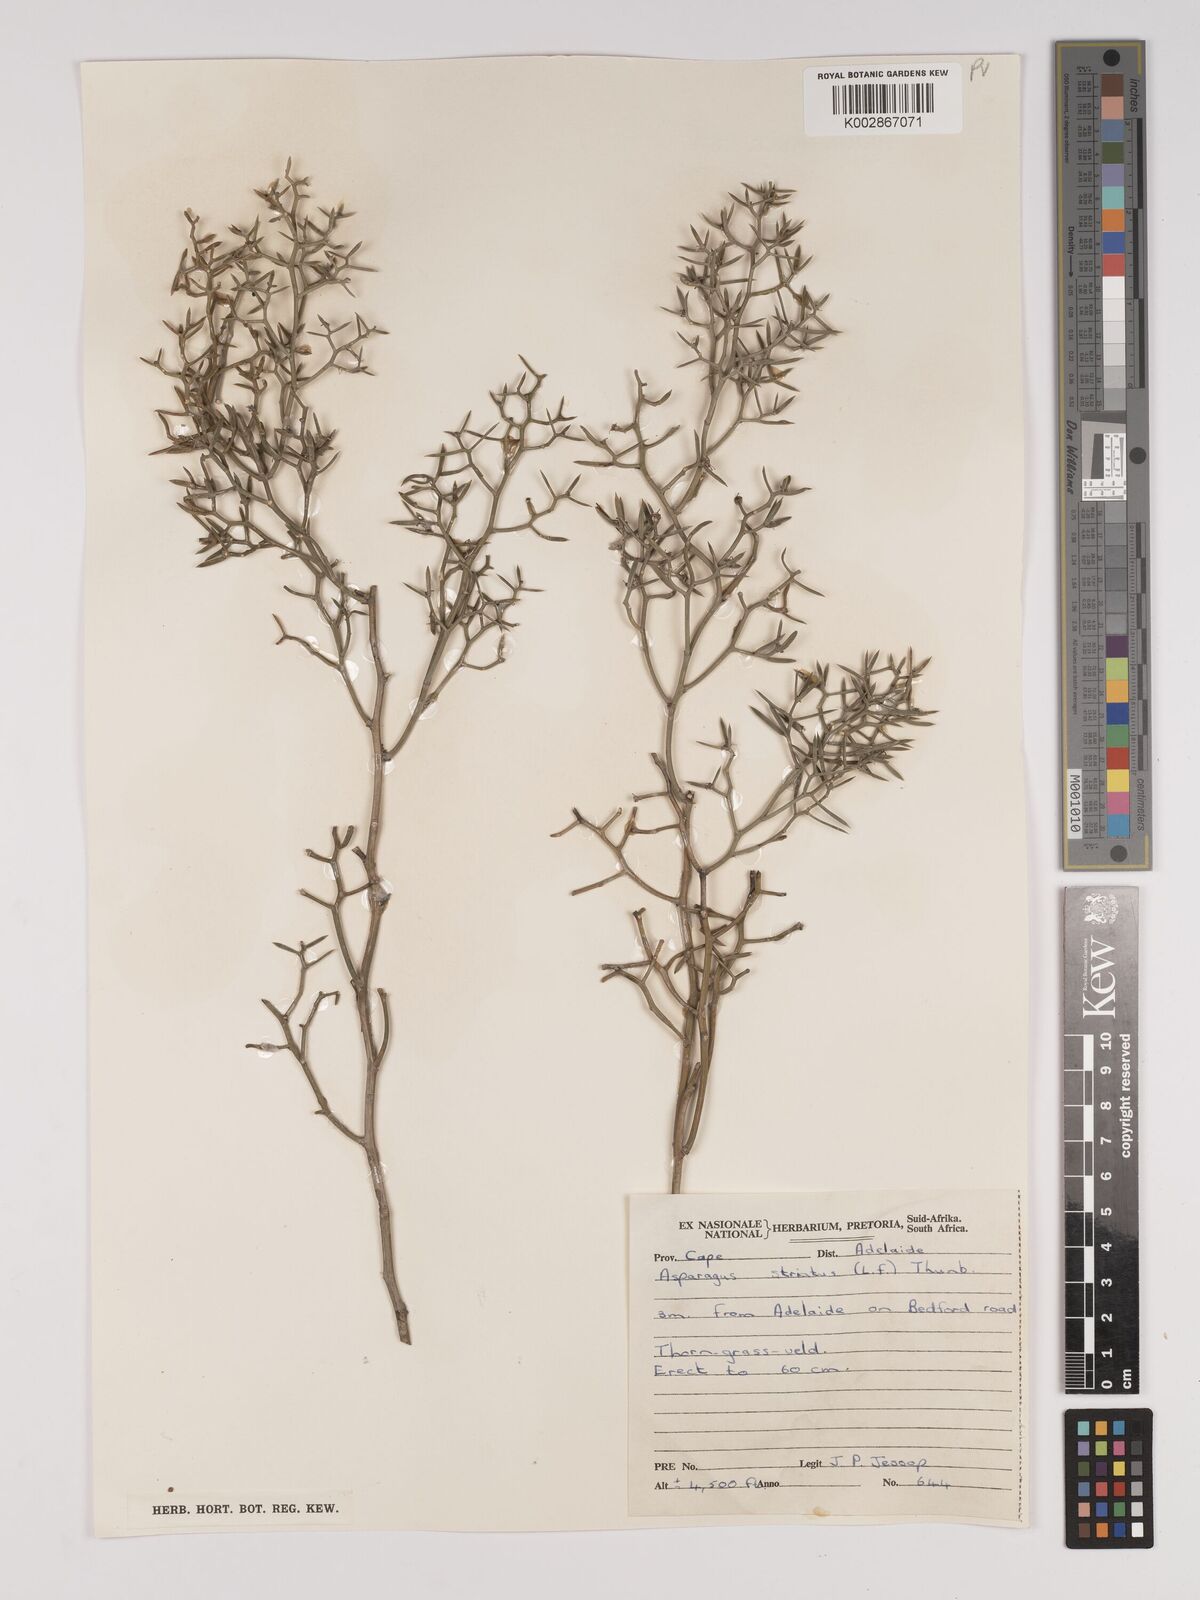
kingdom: Plantae
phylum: Tracheophyta
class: Liliopsida
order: Asparagales
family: Asparagaceae
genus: Asparagus
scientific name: Asparagus striatus
